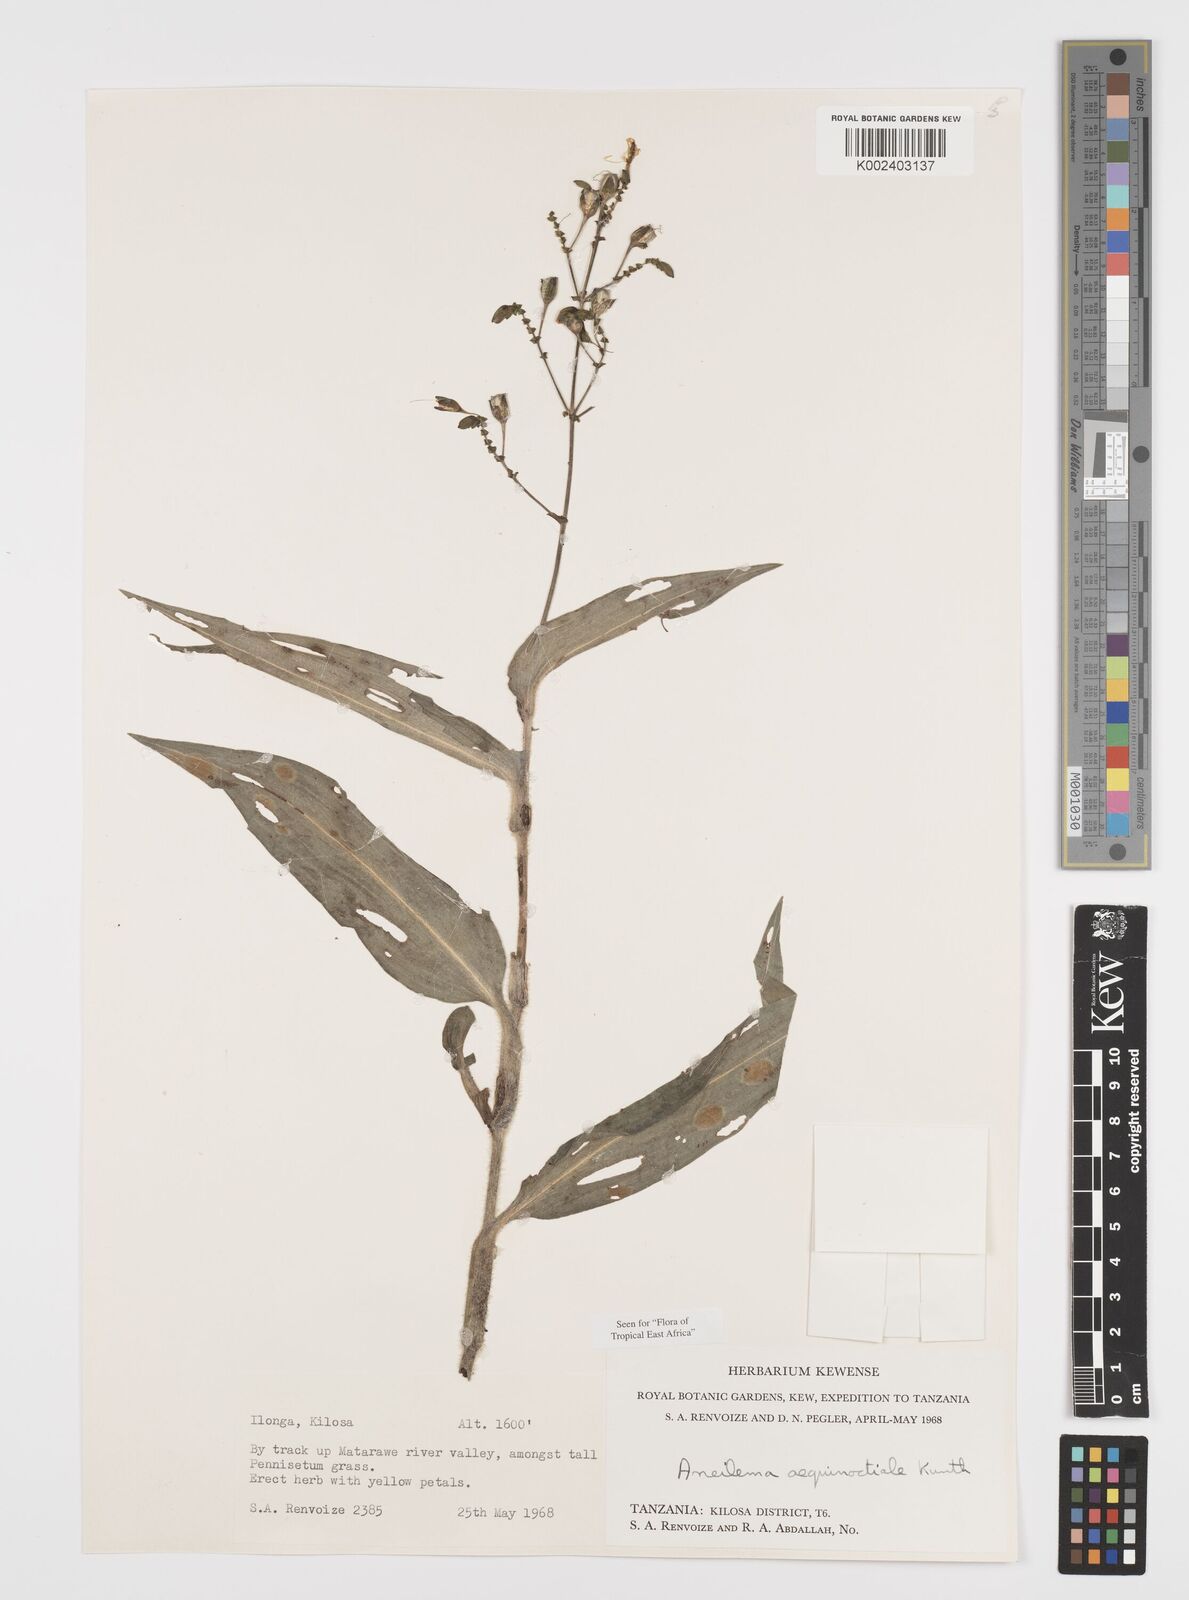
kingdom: Plantae
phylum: Tracheophyta
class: Liliopsida
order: Commelinales
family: Commelinaceae
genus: Aneilema
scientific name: Aneilema aequinoctiale
